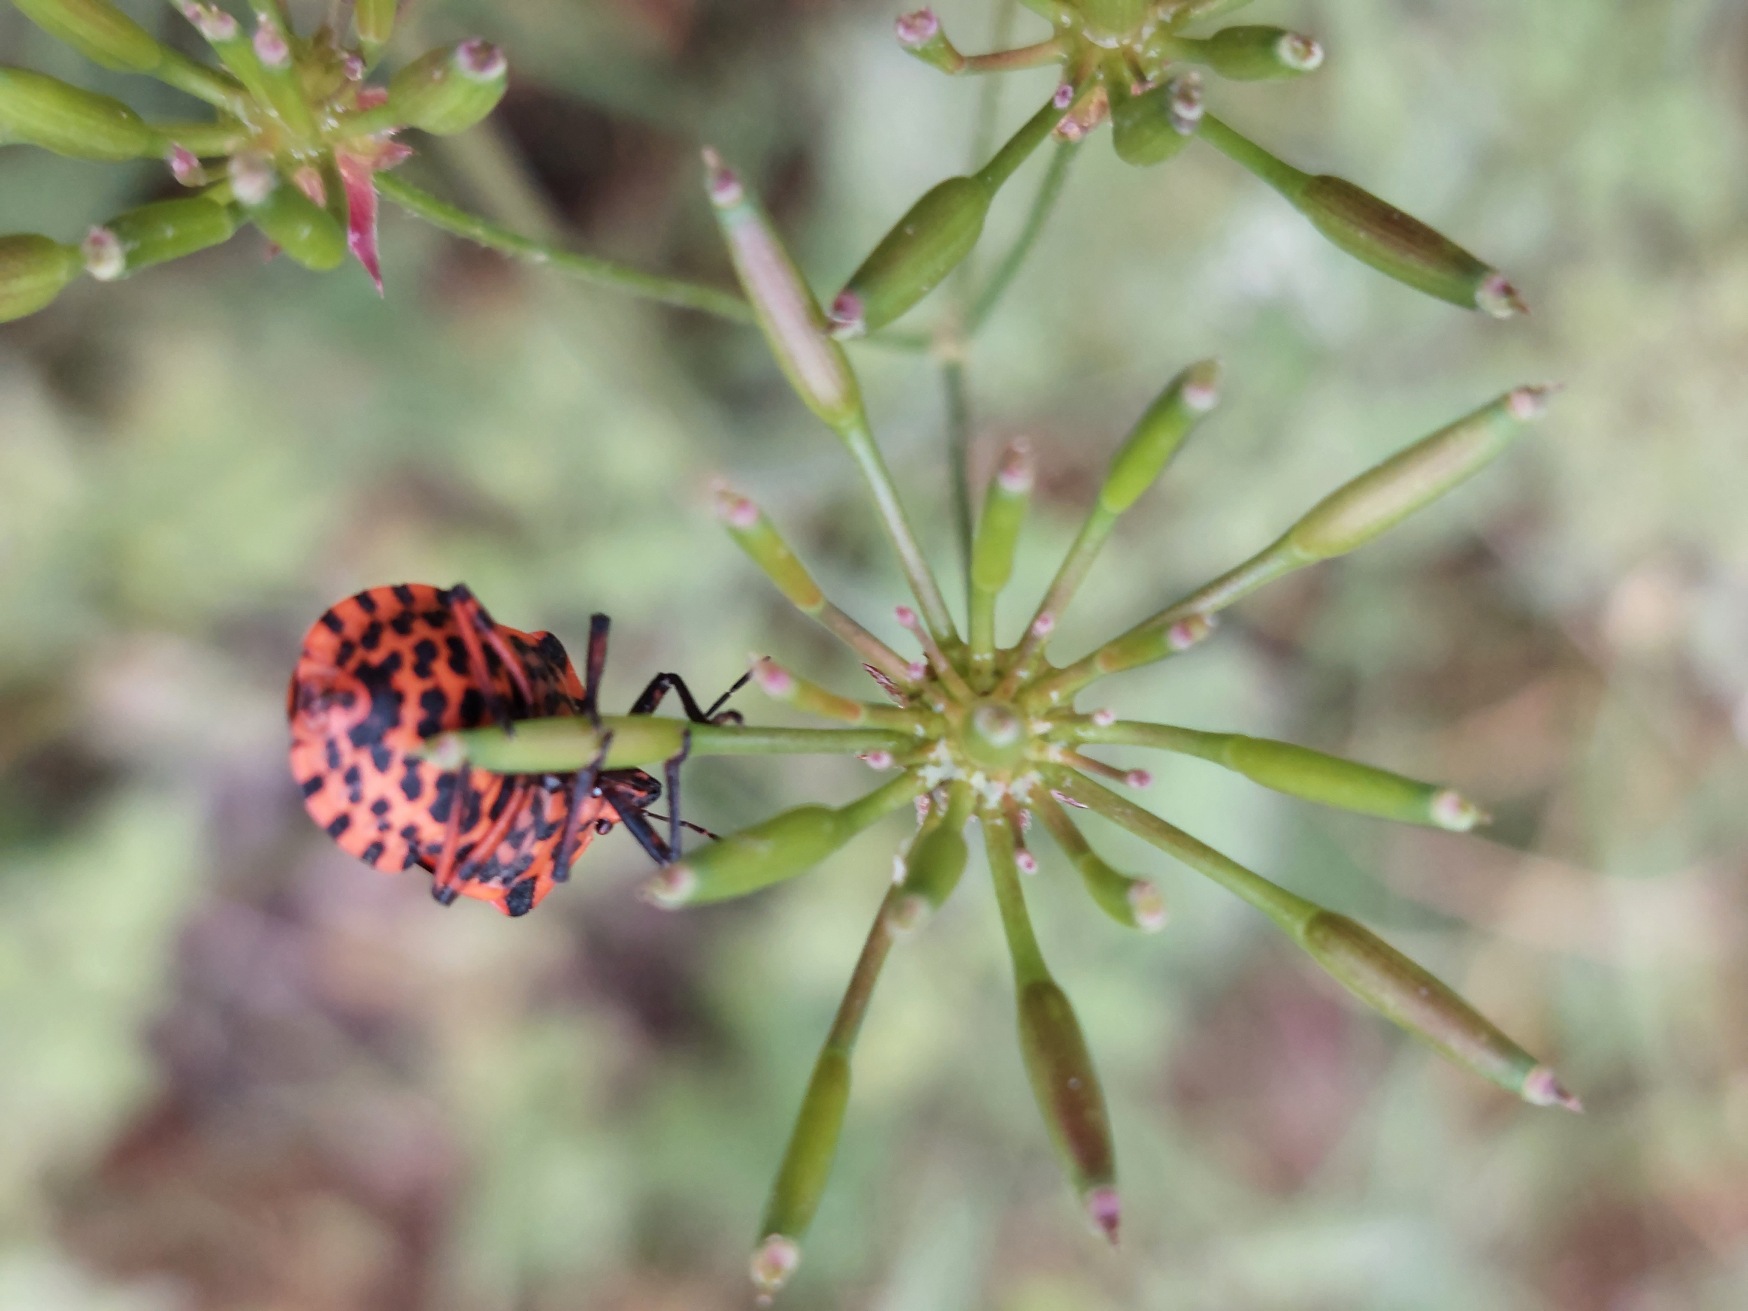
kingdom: Animalia
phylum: Arthropoda
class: Insecta
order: Hemiptera
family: Pentatomidae
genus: Graphosoma
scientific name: Graphosoma italicum
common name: Stribetæge
